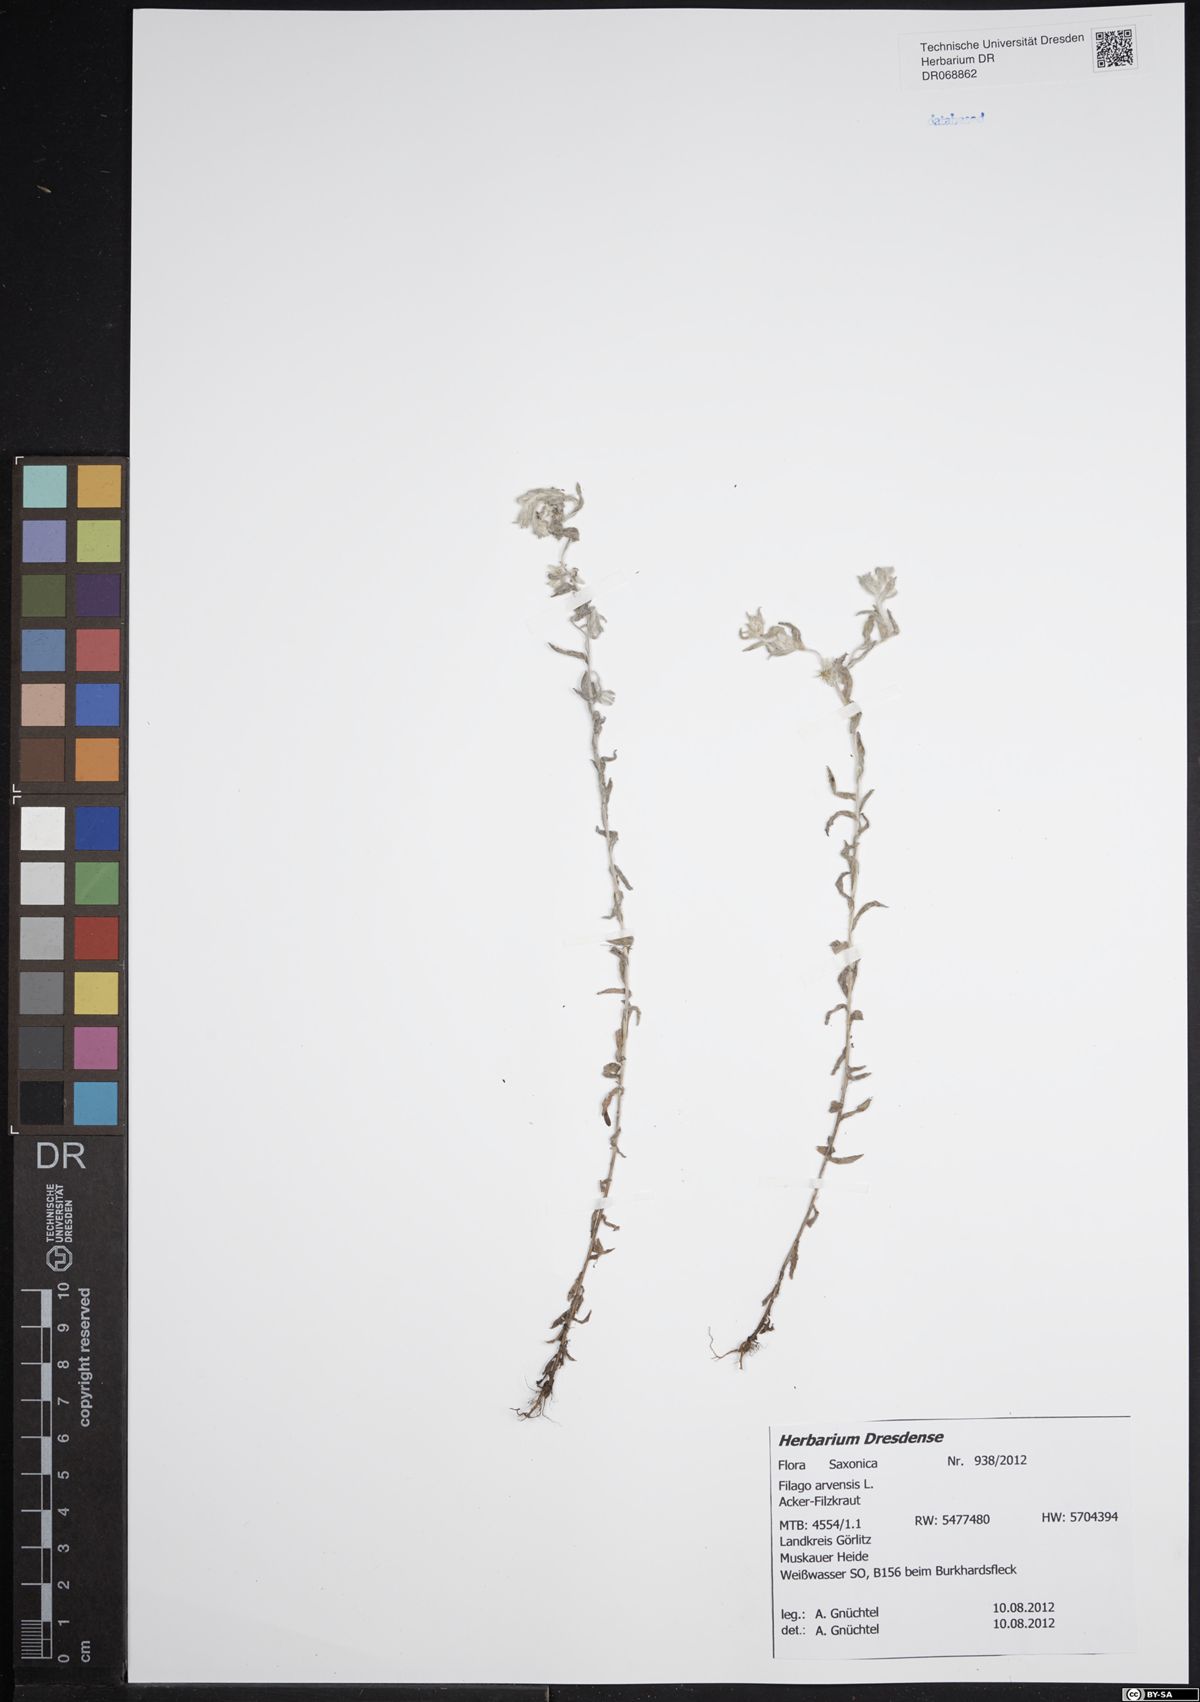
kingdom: Plantae
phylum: Tracheophyta
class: Magnoliopsida
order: Asterales
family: Asteraceae
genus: Filago
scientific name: Filago arvensis
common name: Field cudweed
